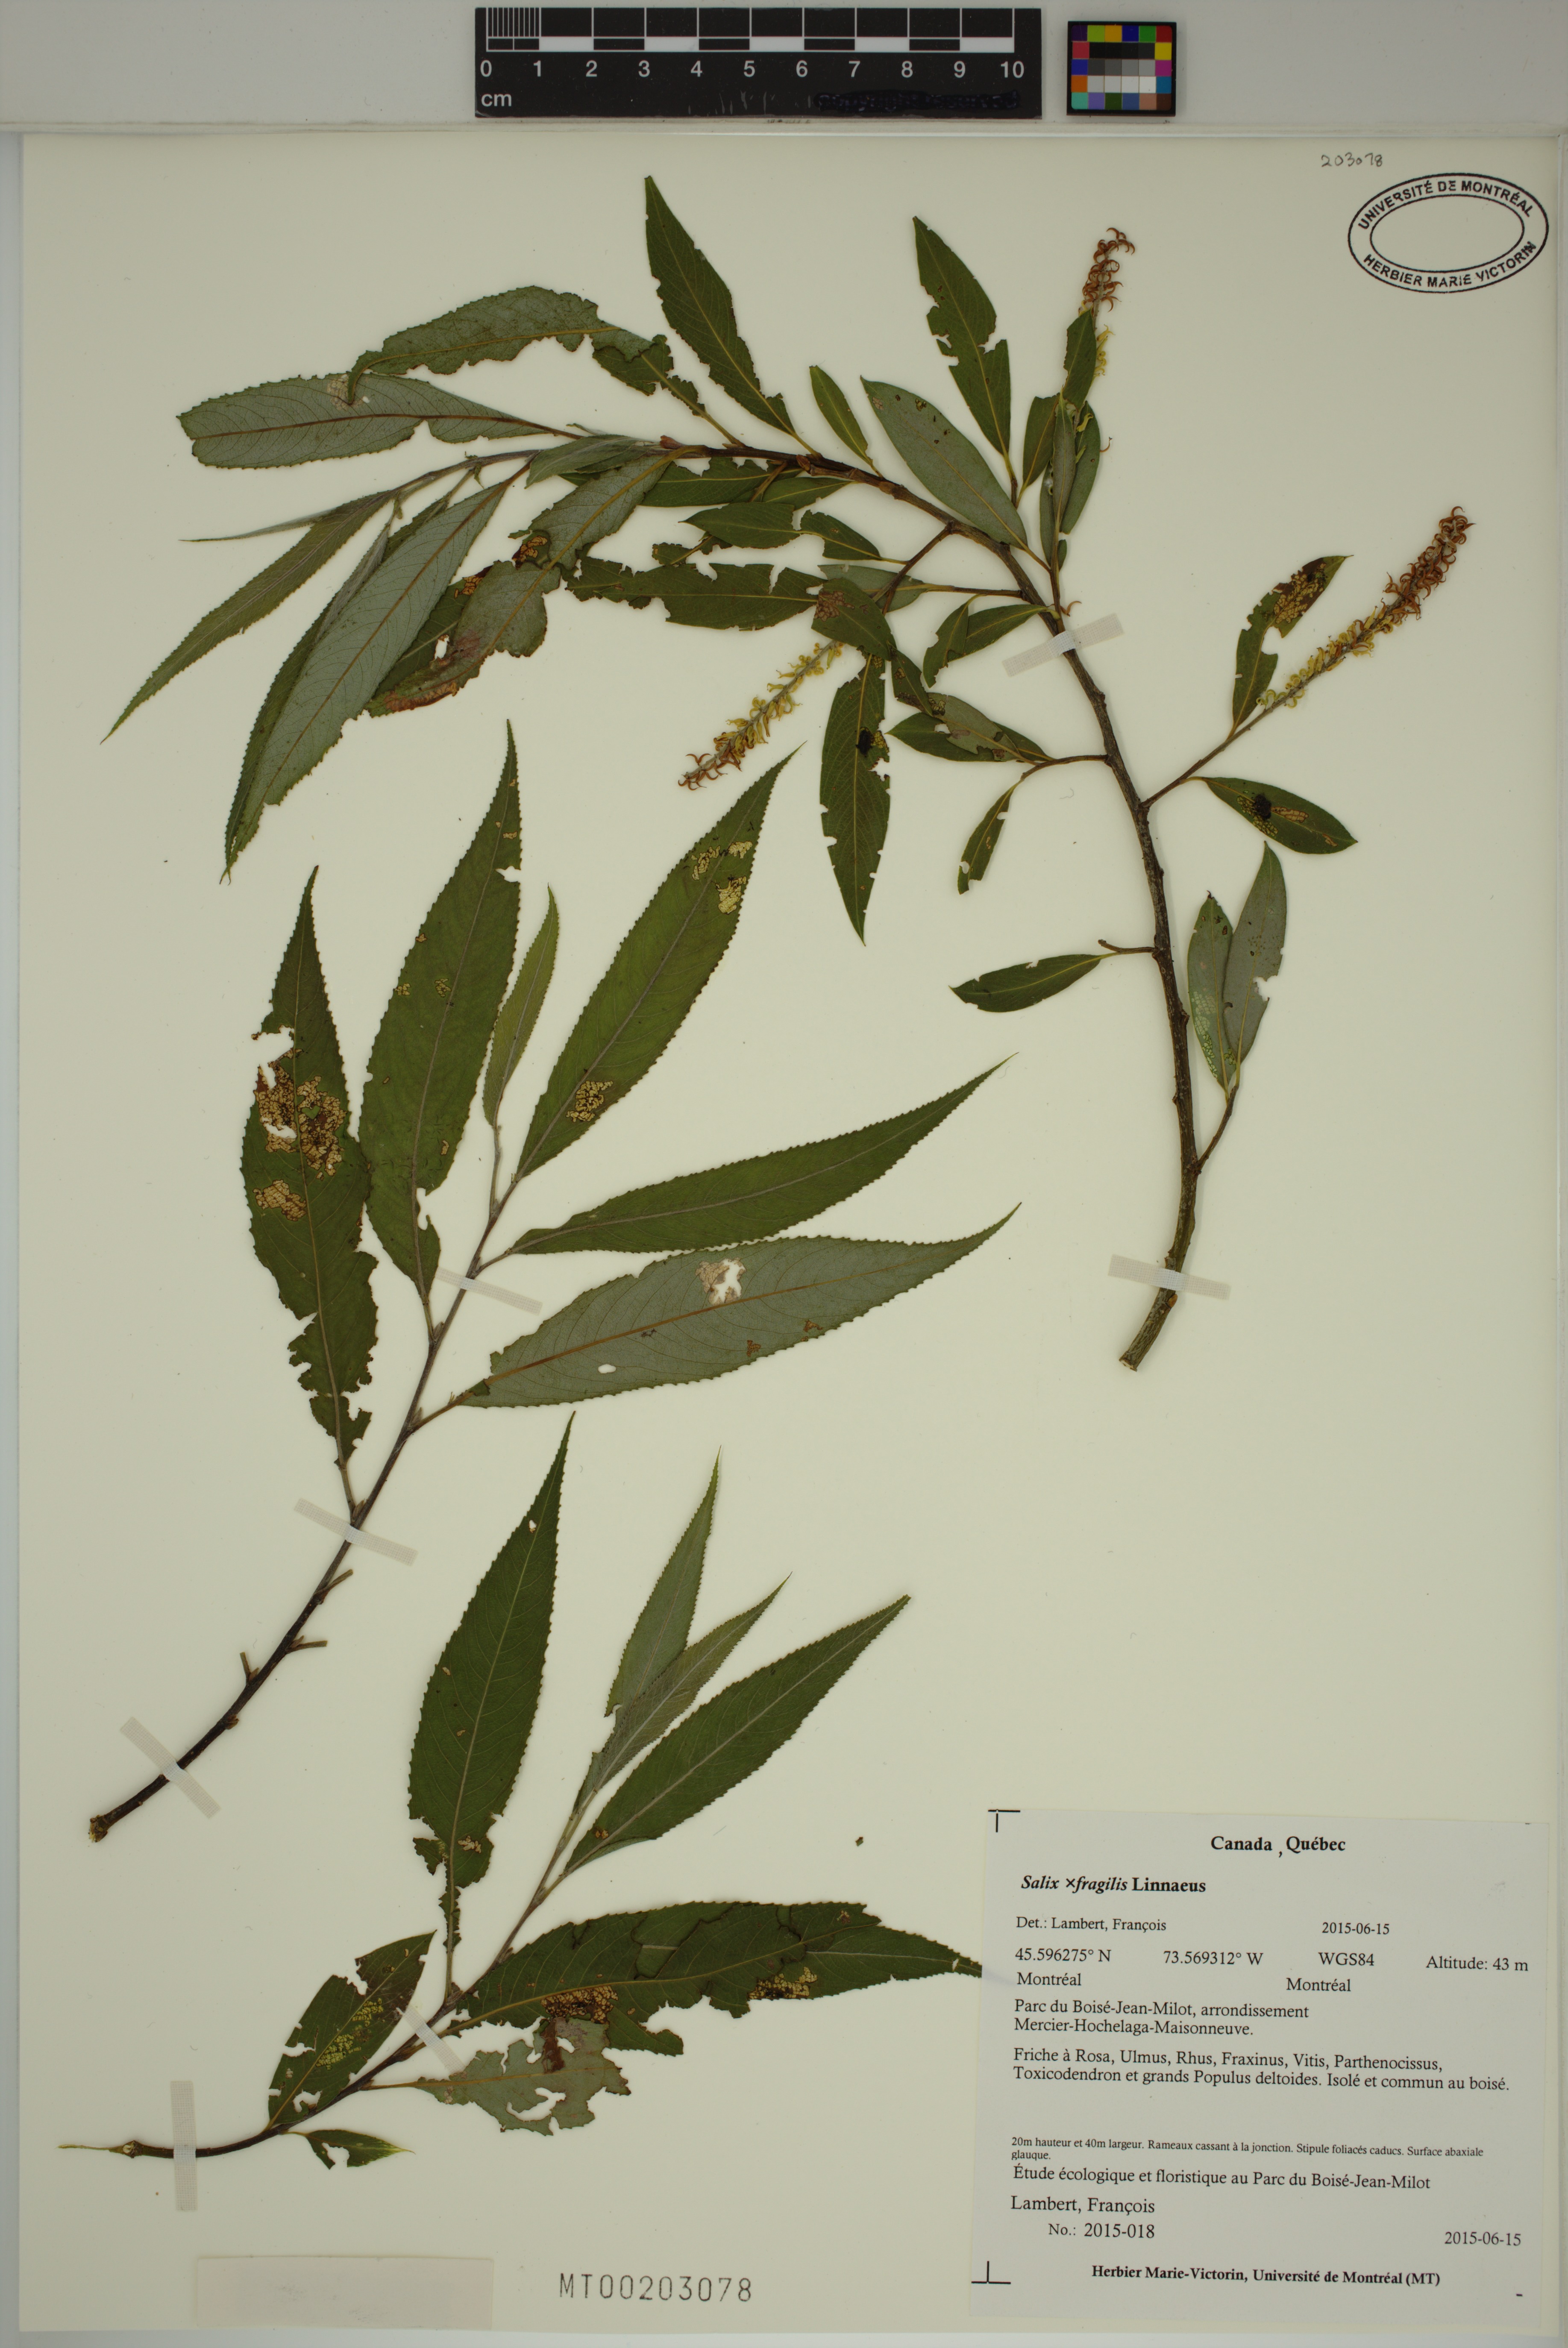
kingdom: Plantae
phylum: Tracheophyta
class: Magnoliopsida
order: Malpighiales
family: Salicaceae
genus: Salix
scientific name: Salix fragilis
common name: Crack willow
